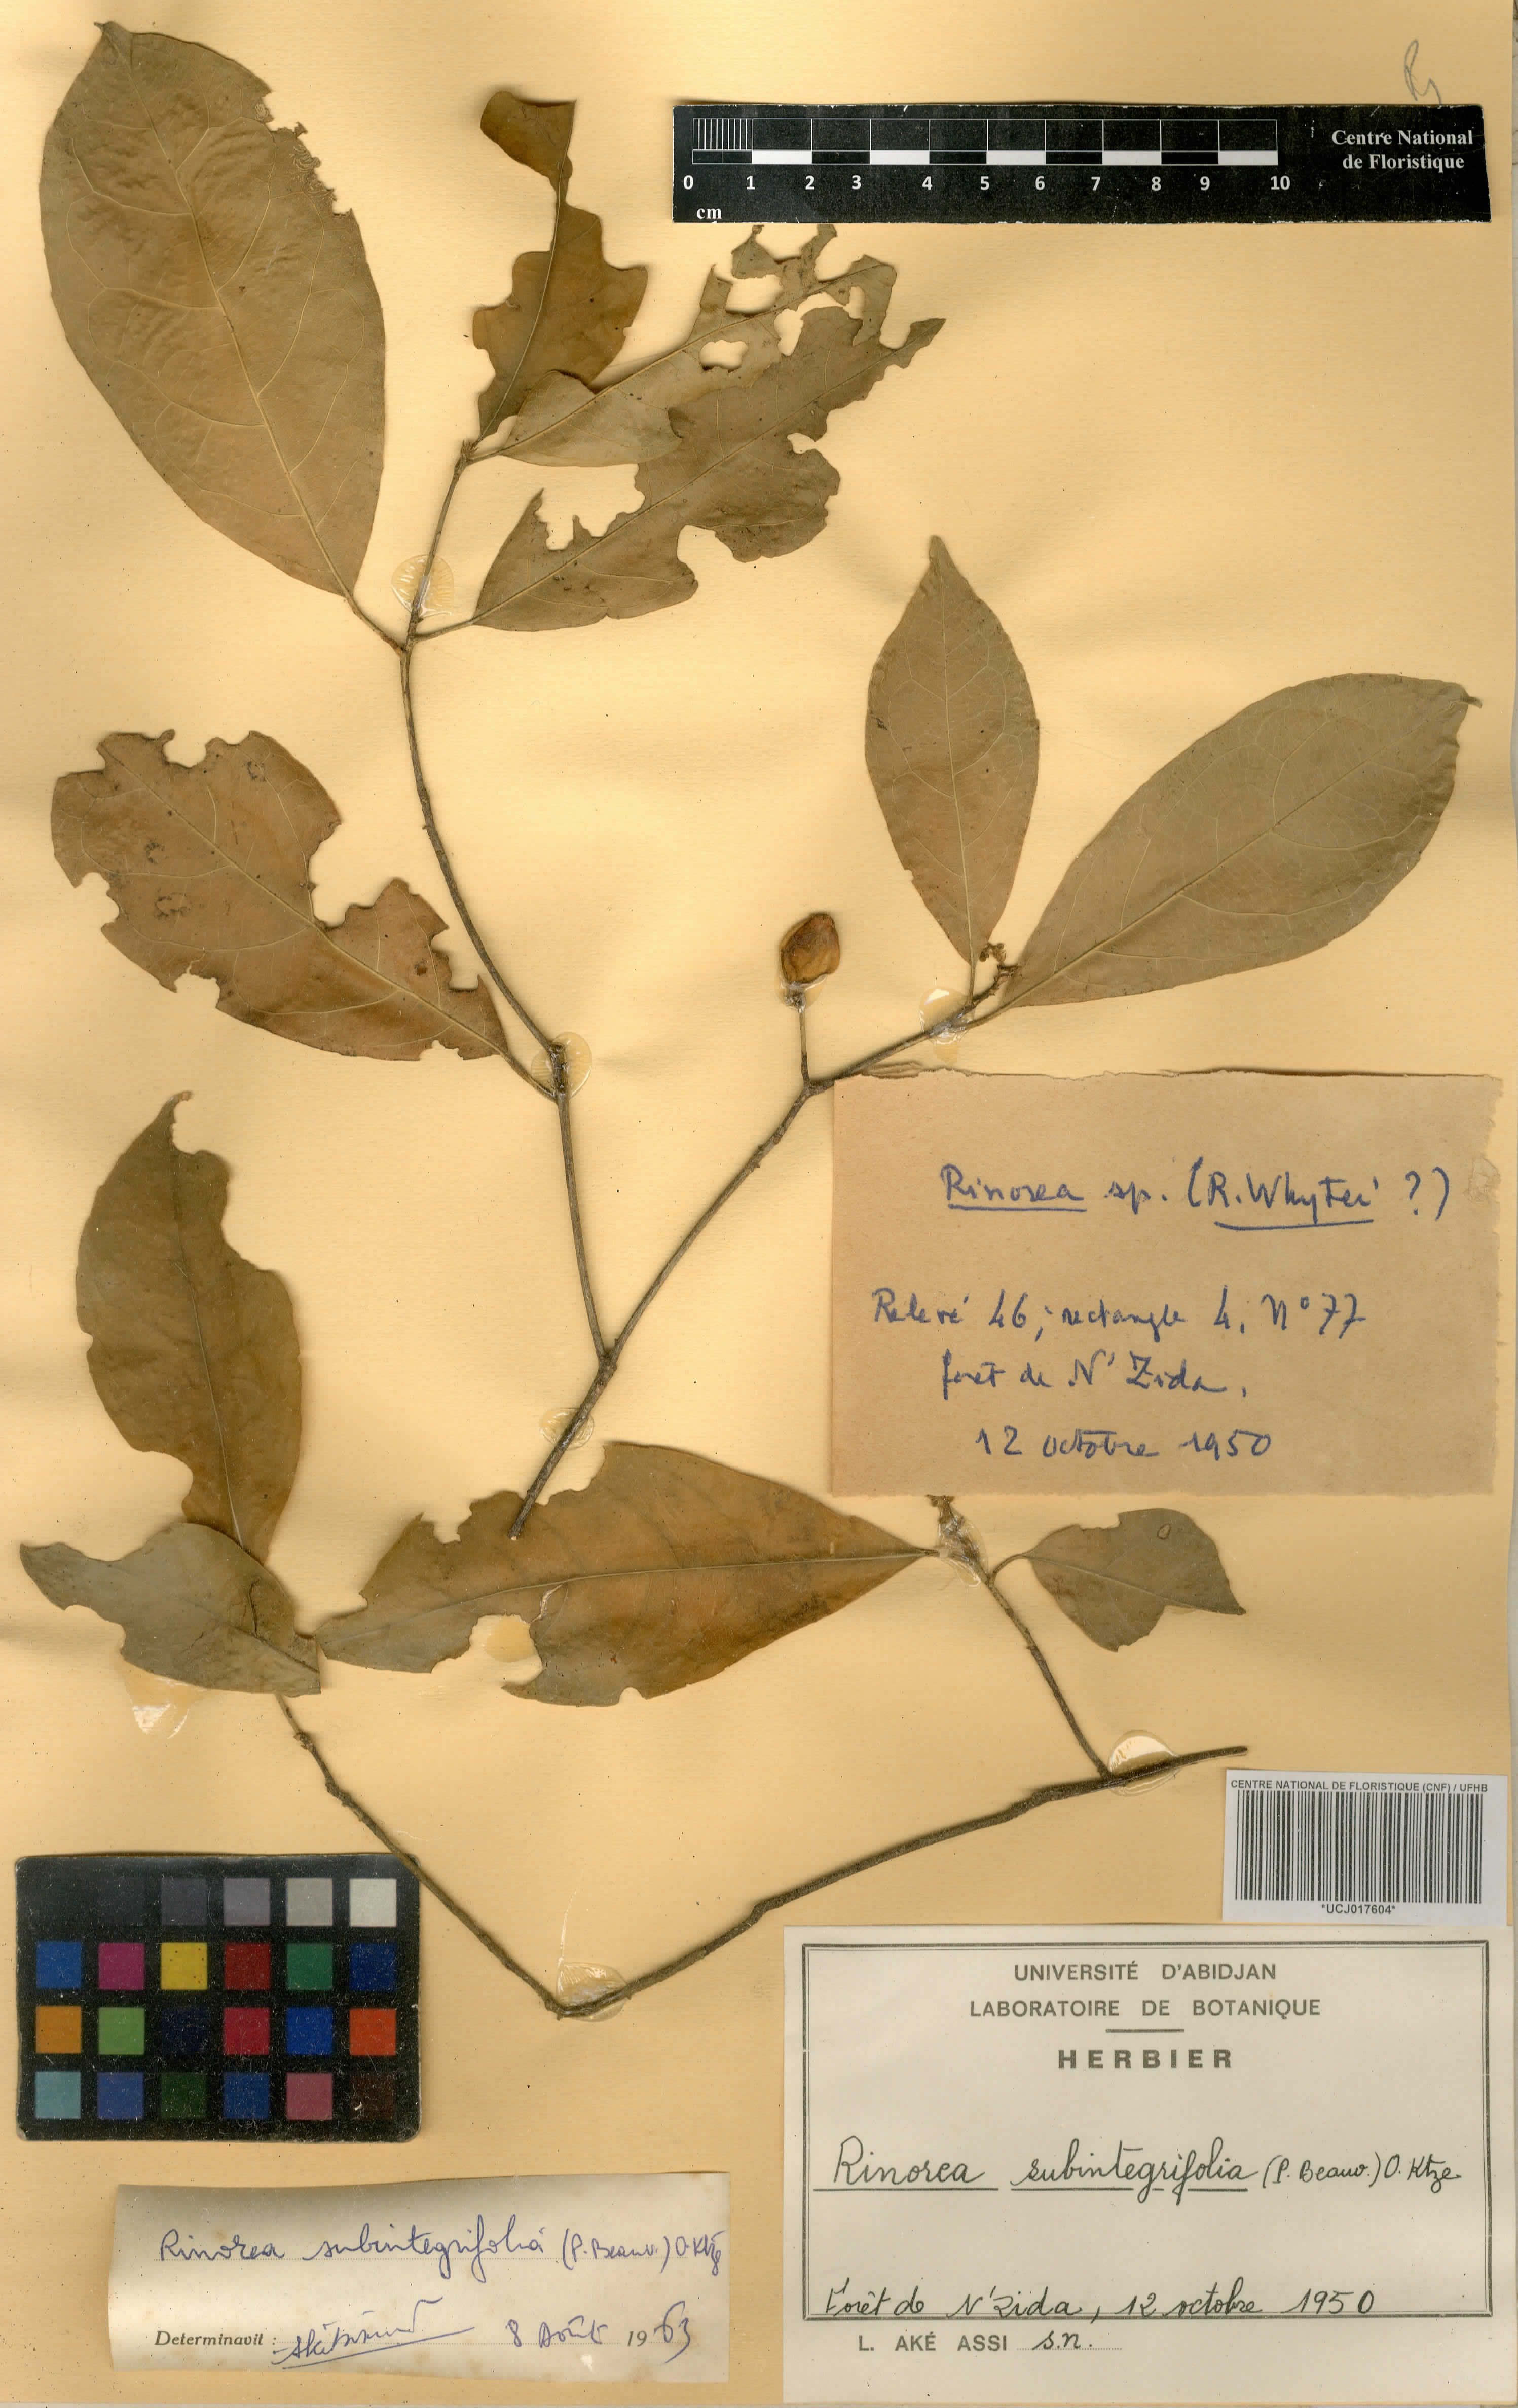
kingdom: Plantae
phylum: Tracheophyta
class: Magnoliopsida
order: Malpighiales
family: Violaceae
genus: Rinorea
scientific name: Rinorea subintegrifolia
